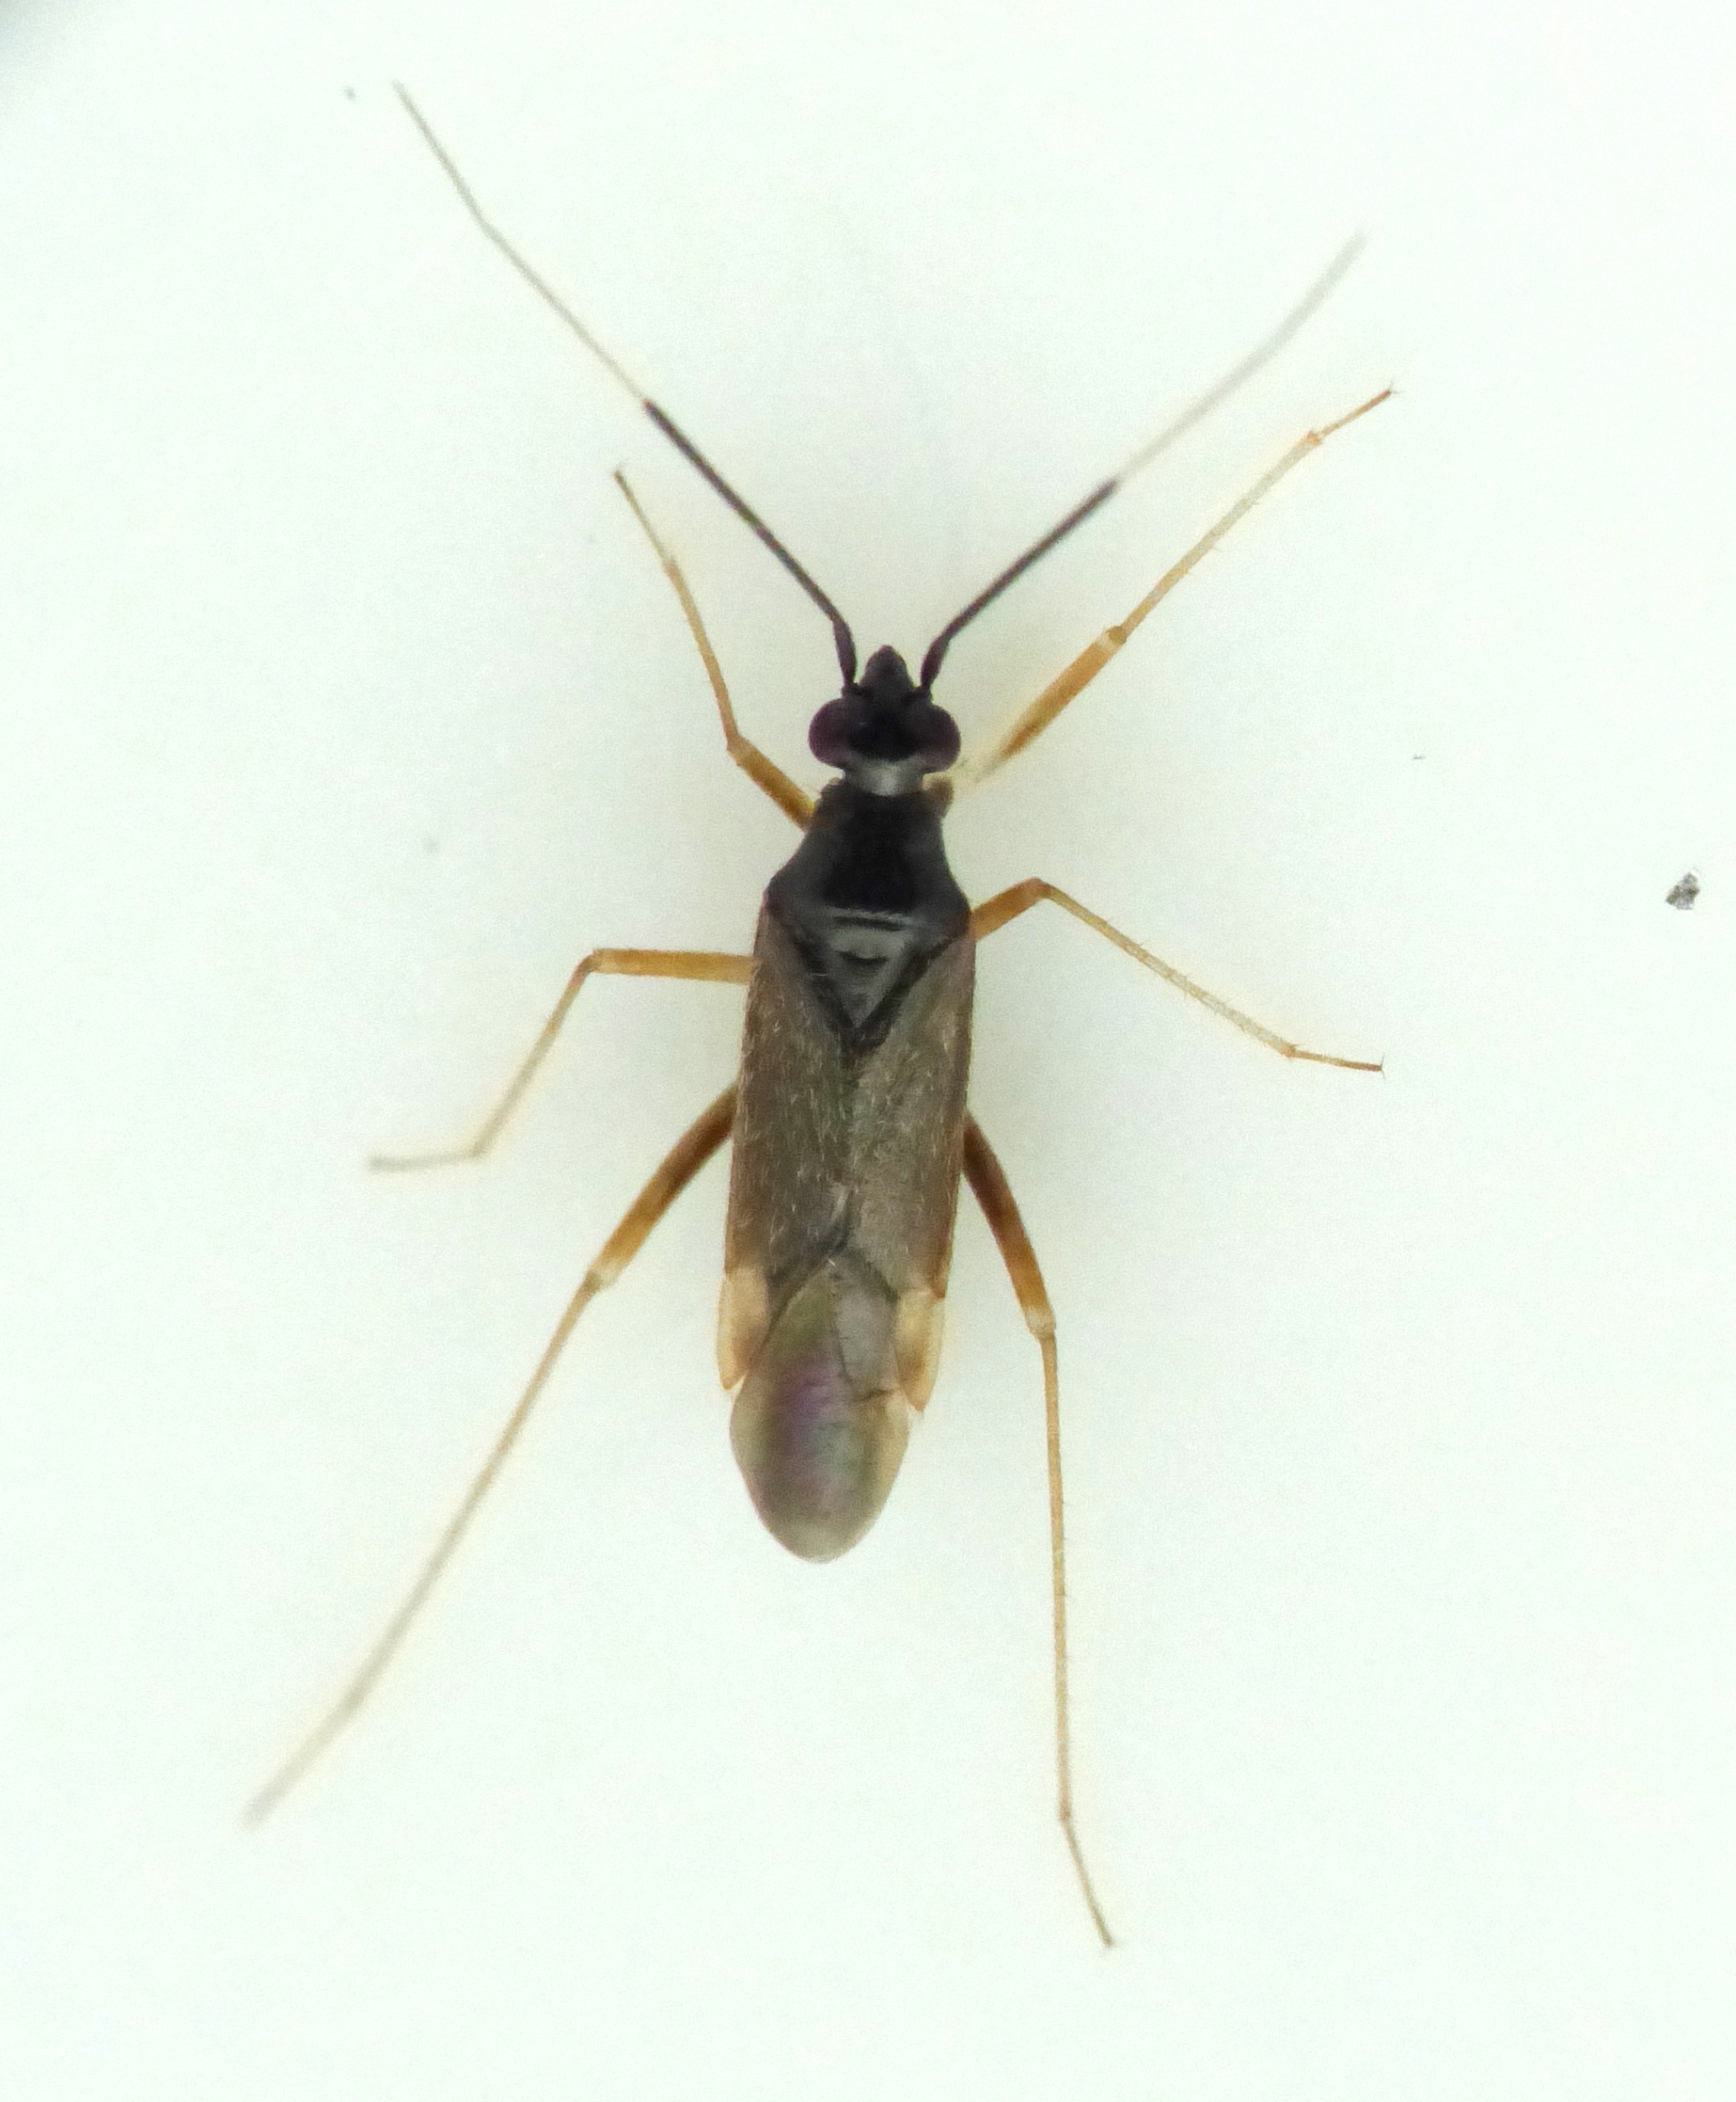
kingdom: Animalia
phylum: Arthropoda
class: Insecta
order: Hemiptera
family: Miridae
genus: Orthonotus
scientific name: Orthonotus rufifrons
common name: Rødhovedet blomstertæge
